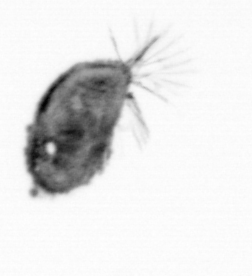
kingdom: Animalia
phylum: Arthropoda
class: Maxillopoda
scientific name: Maxillopoda
